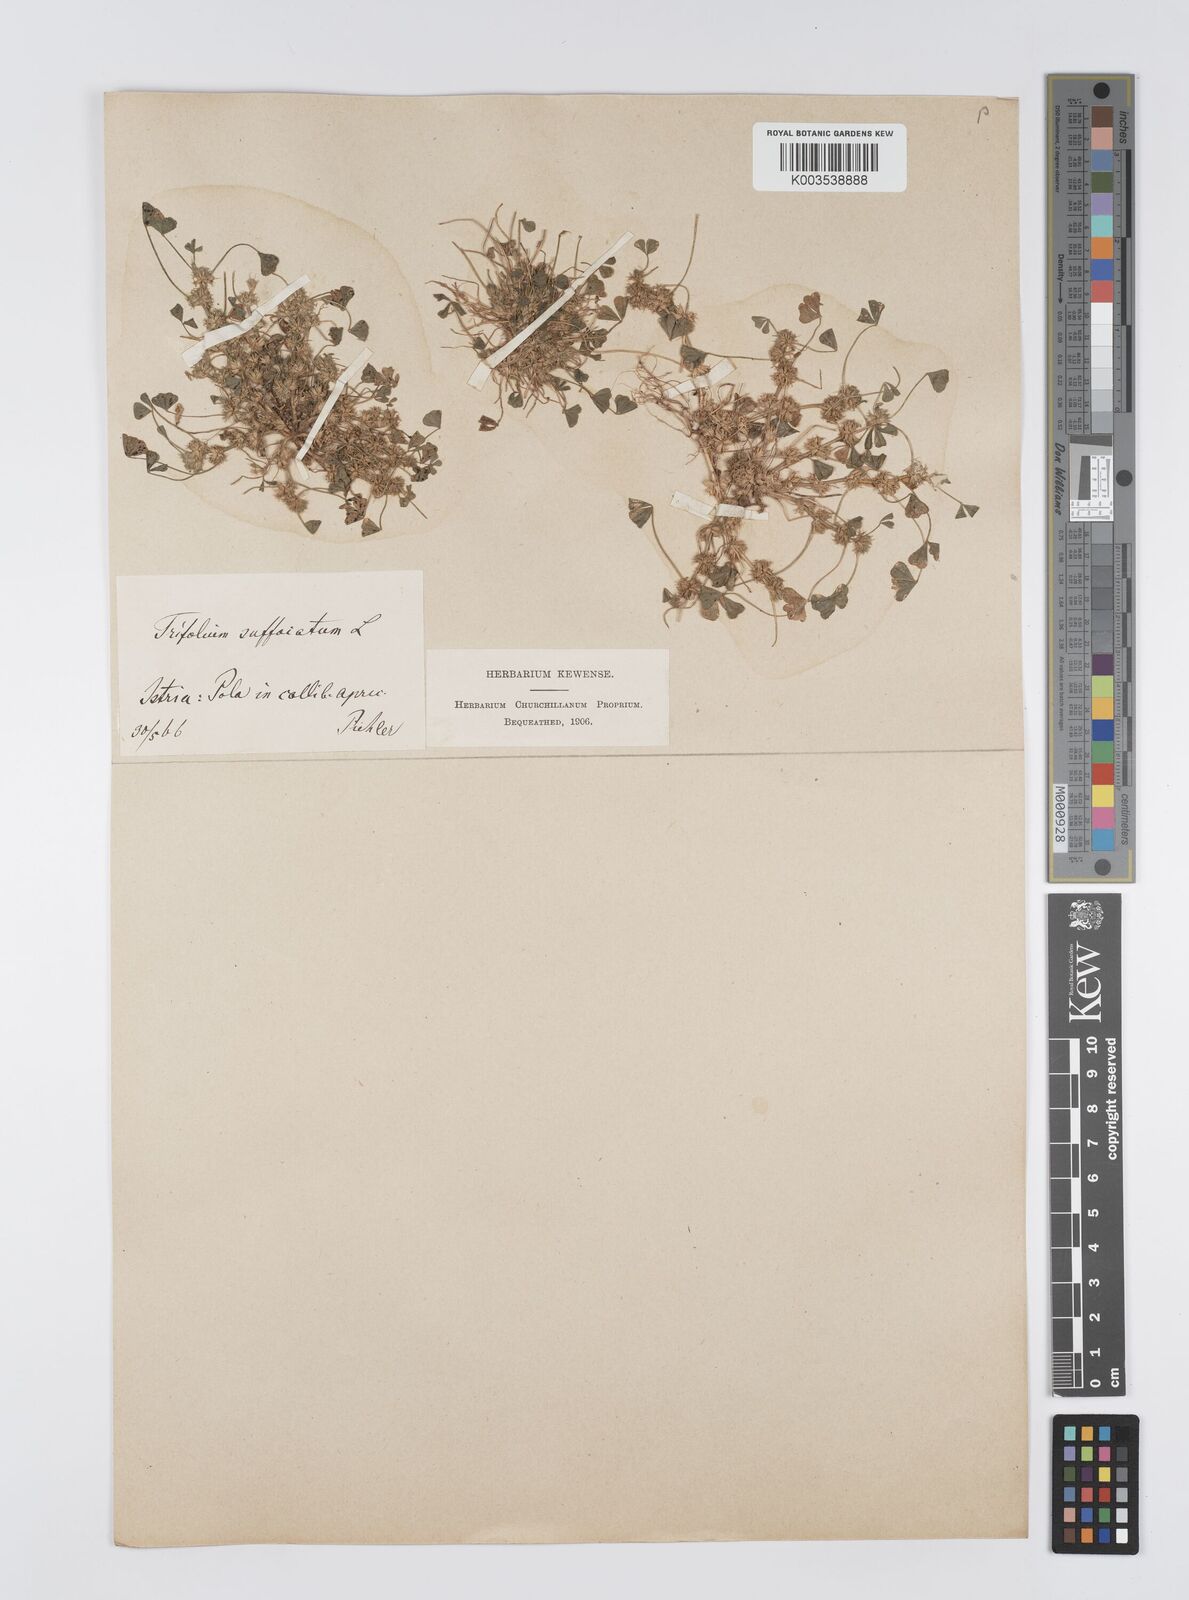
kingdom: Plantae
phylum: Tracheophyta
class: Magnoliopsida
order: Fabales
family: Fabaceae
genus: Trifolium
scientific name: Trifolium suffocatum
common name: Suffocated clover
